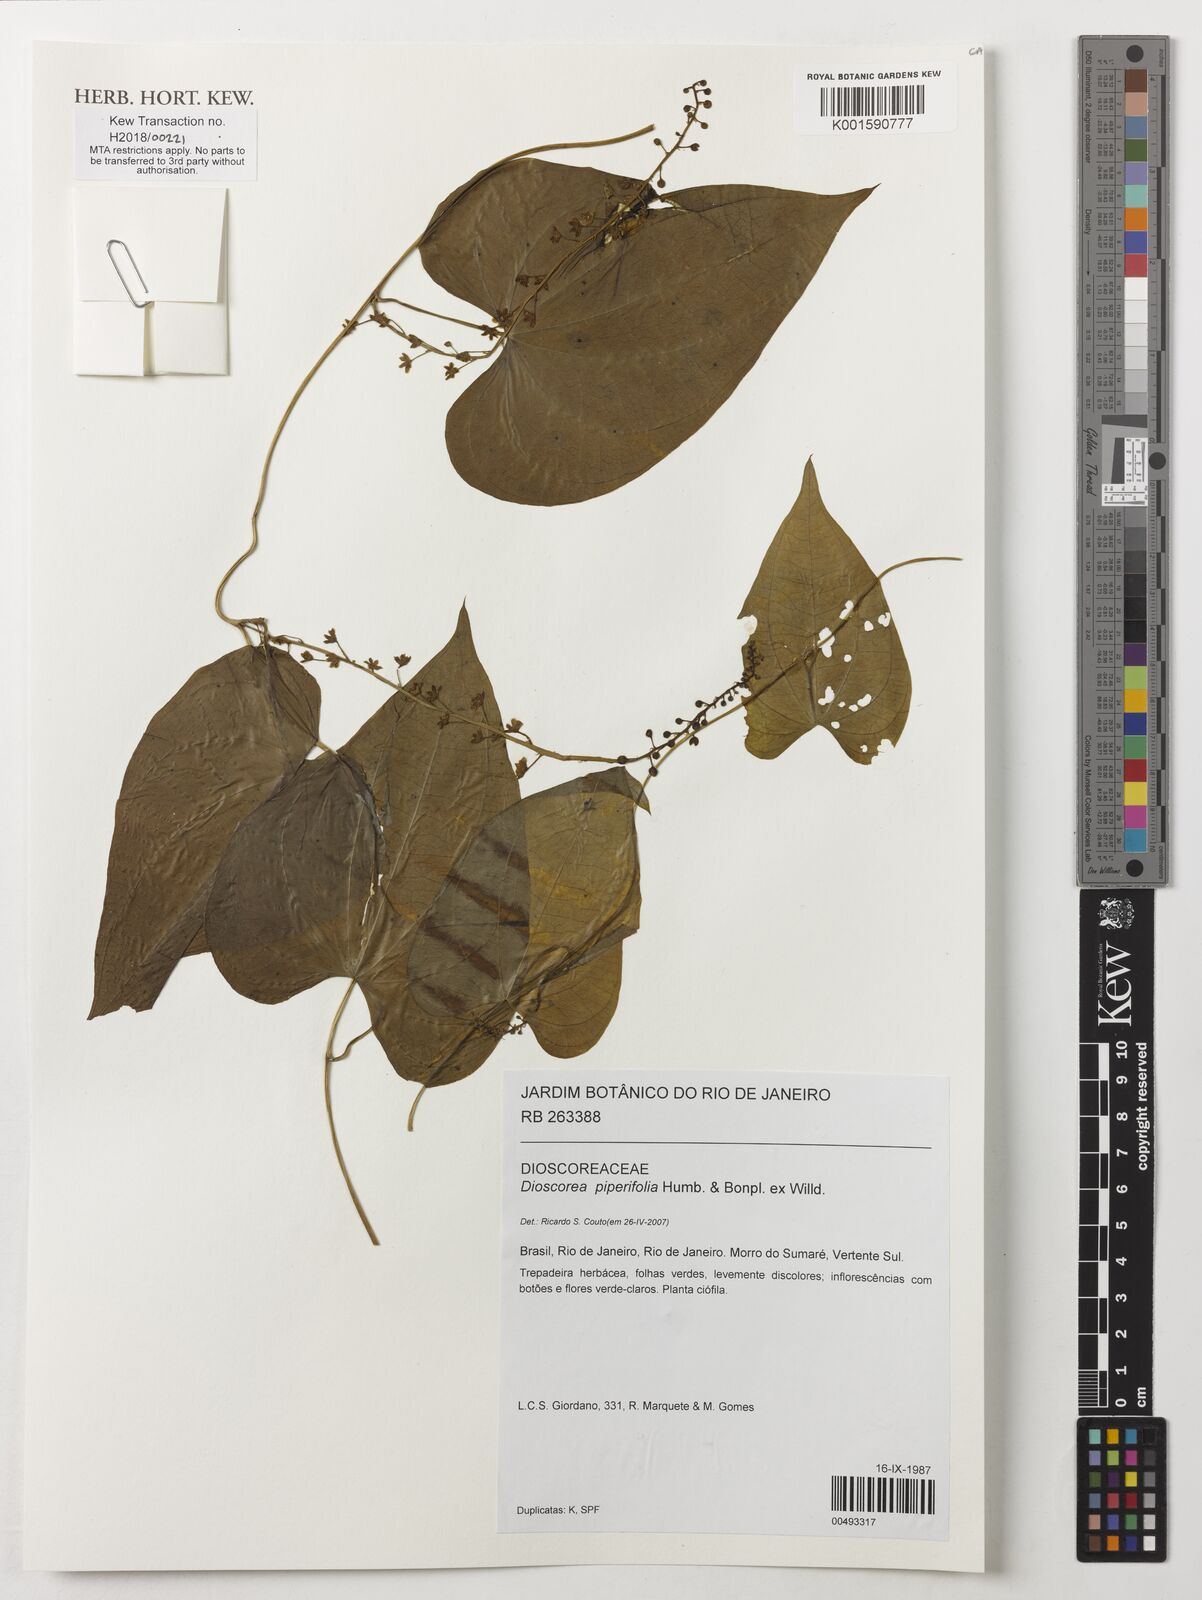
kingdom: Plantae
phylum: Tracheophyta
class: Liliopsida
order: Dioscoreales
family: Dioscoreaceae
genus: Dioscorea
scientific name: Dioscorea piperifolia
